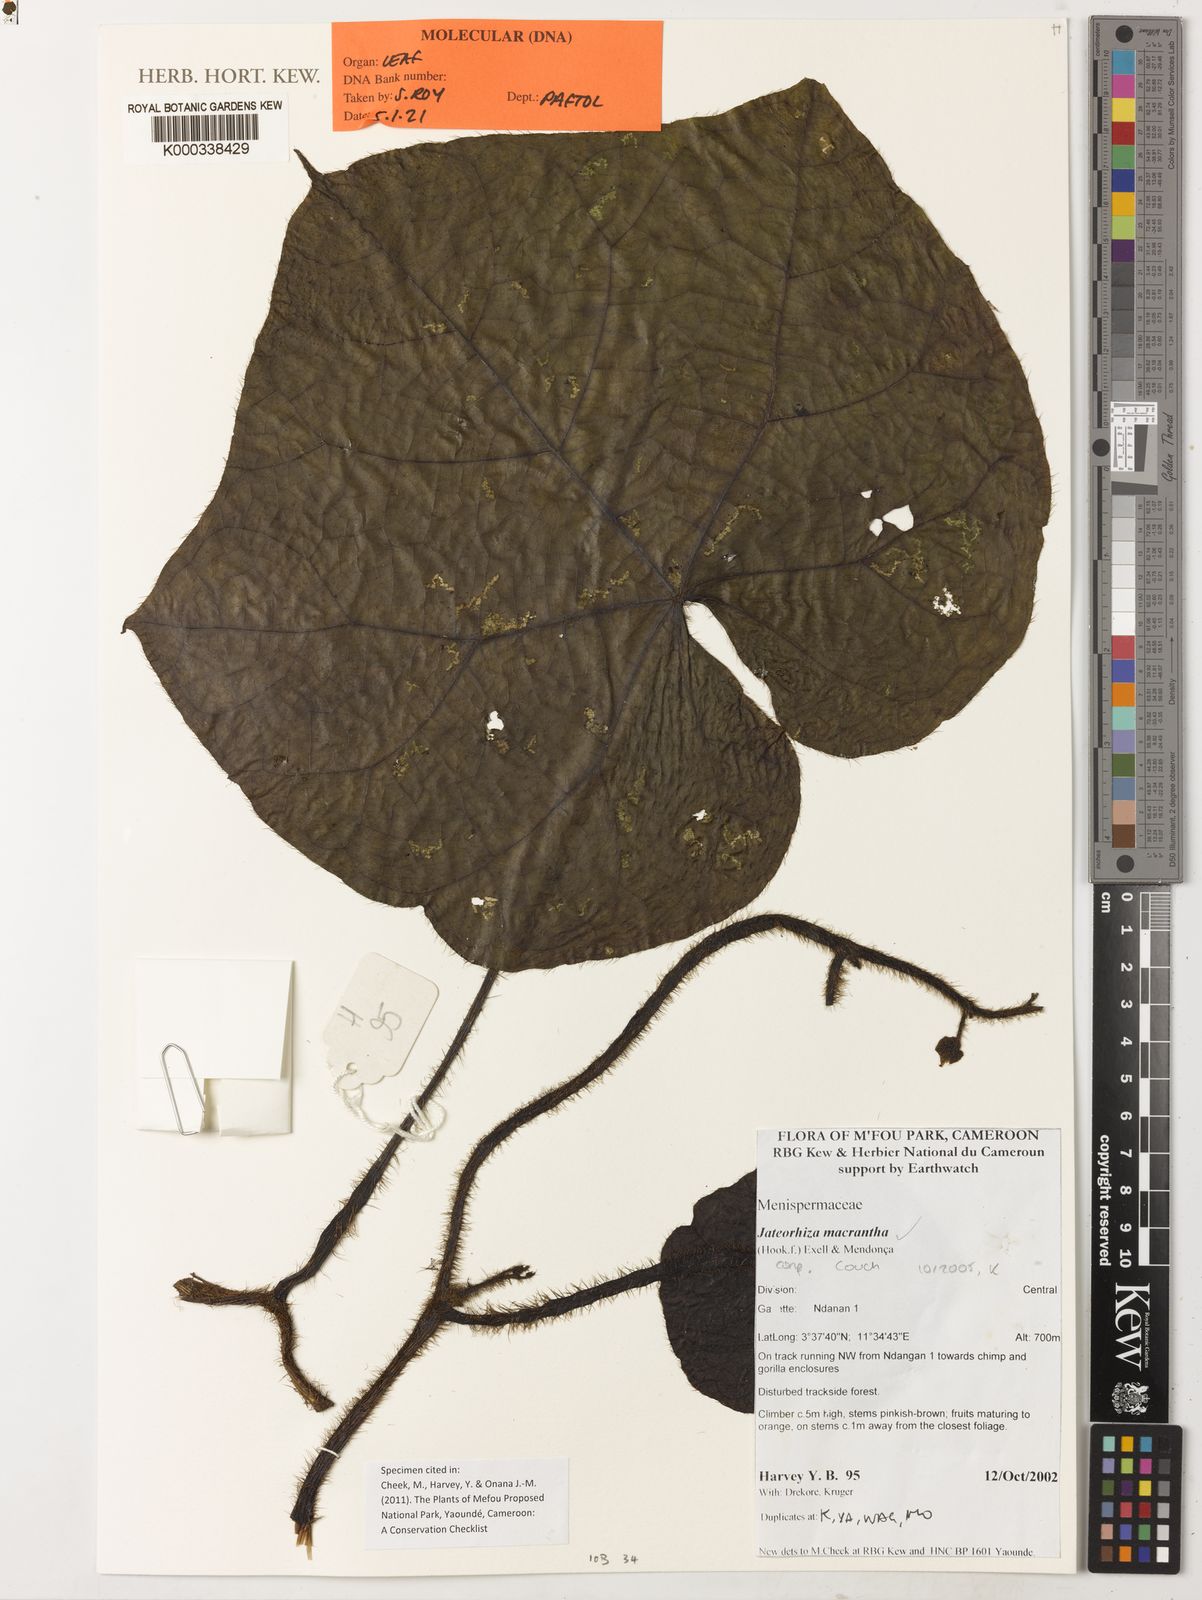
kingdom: Plantae
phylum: Tracheophyta
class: Magnoliopsida
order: Ranunculales
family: Menispermaceae
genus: Jateorhiza
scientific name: Jateorhiza
